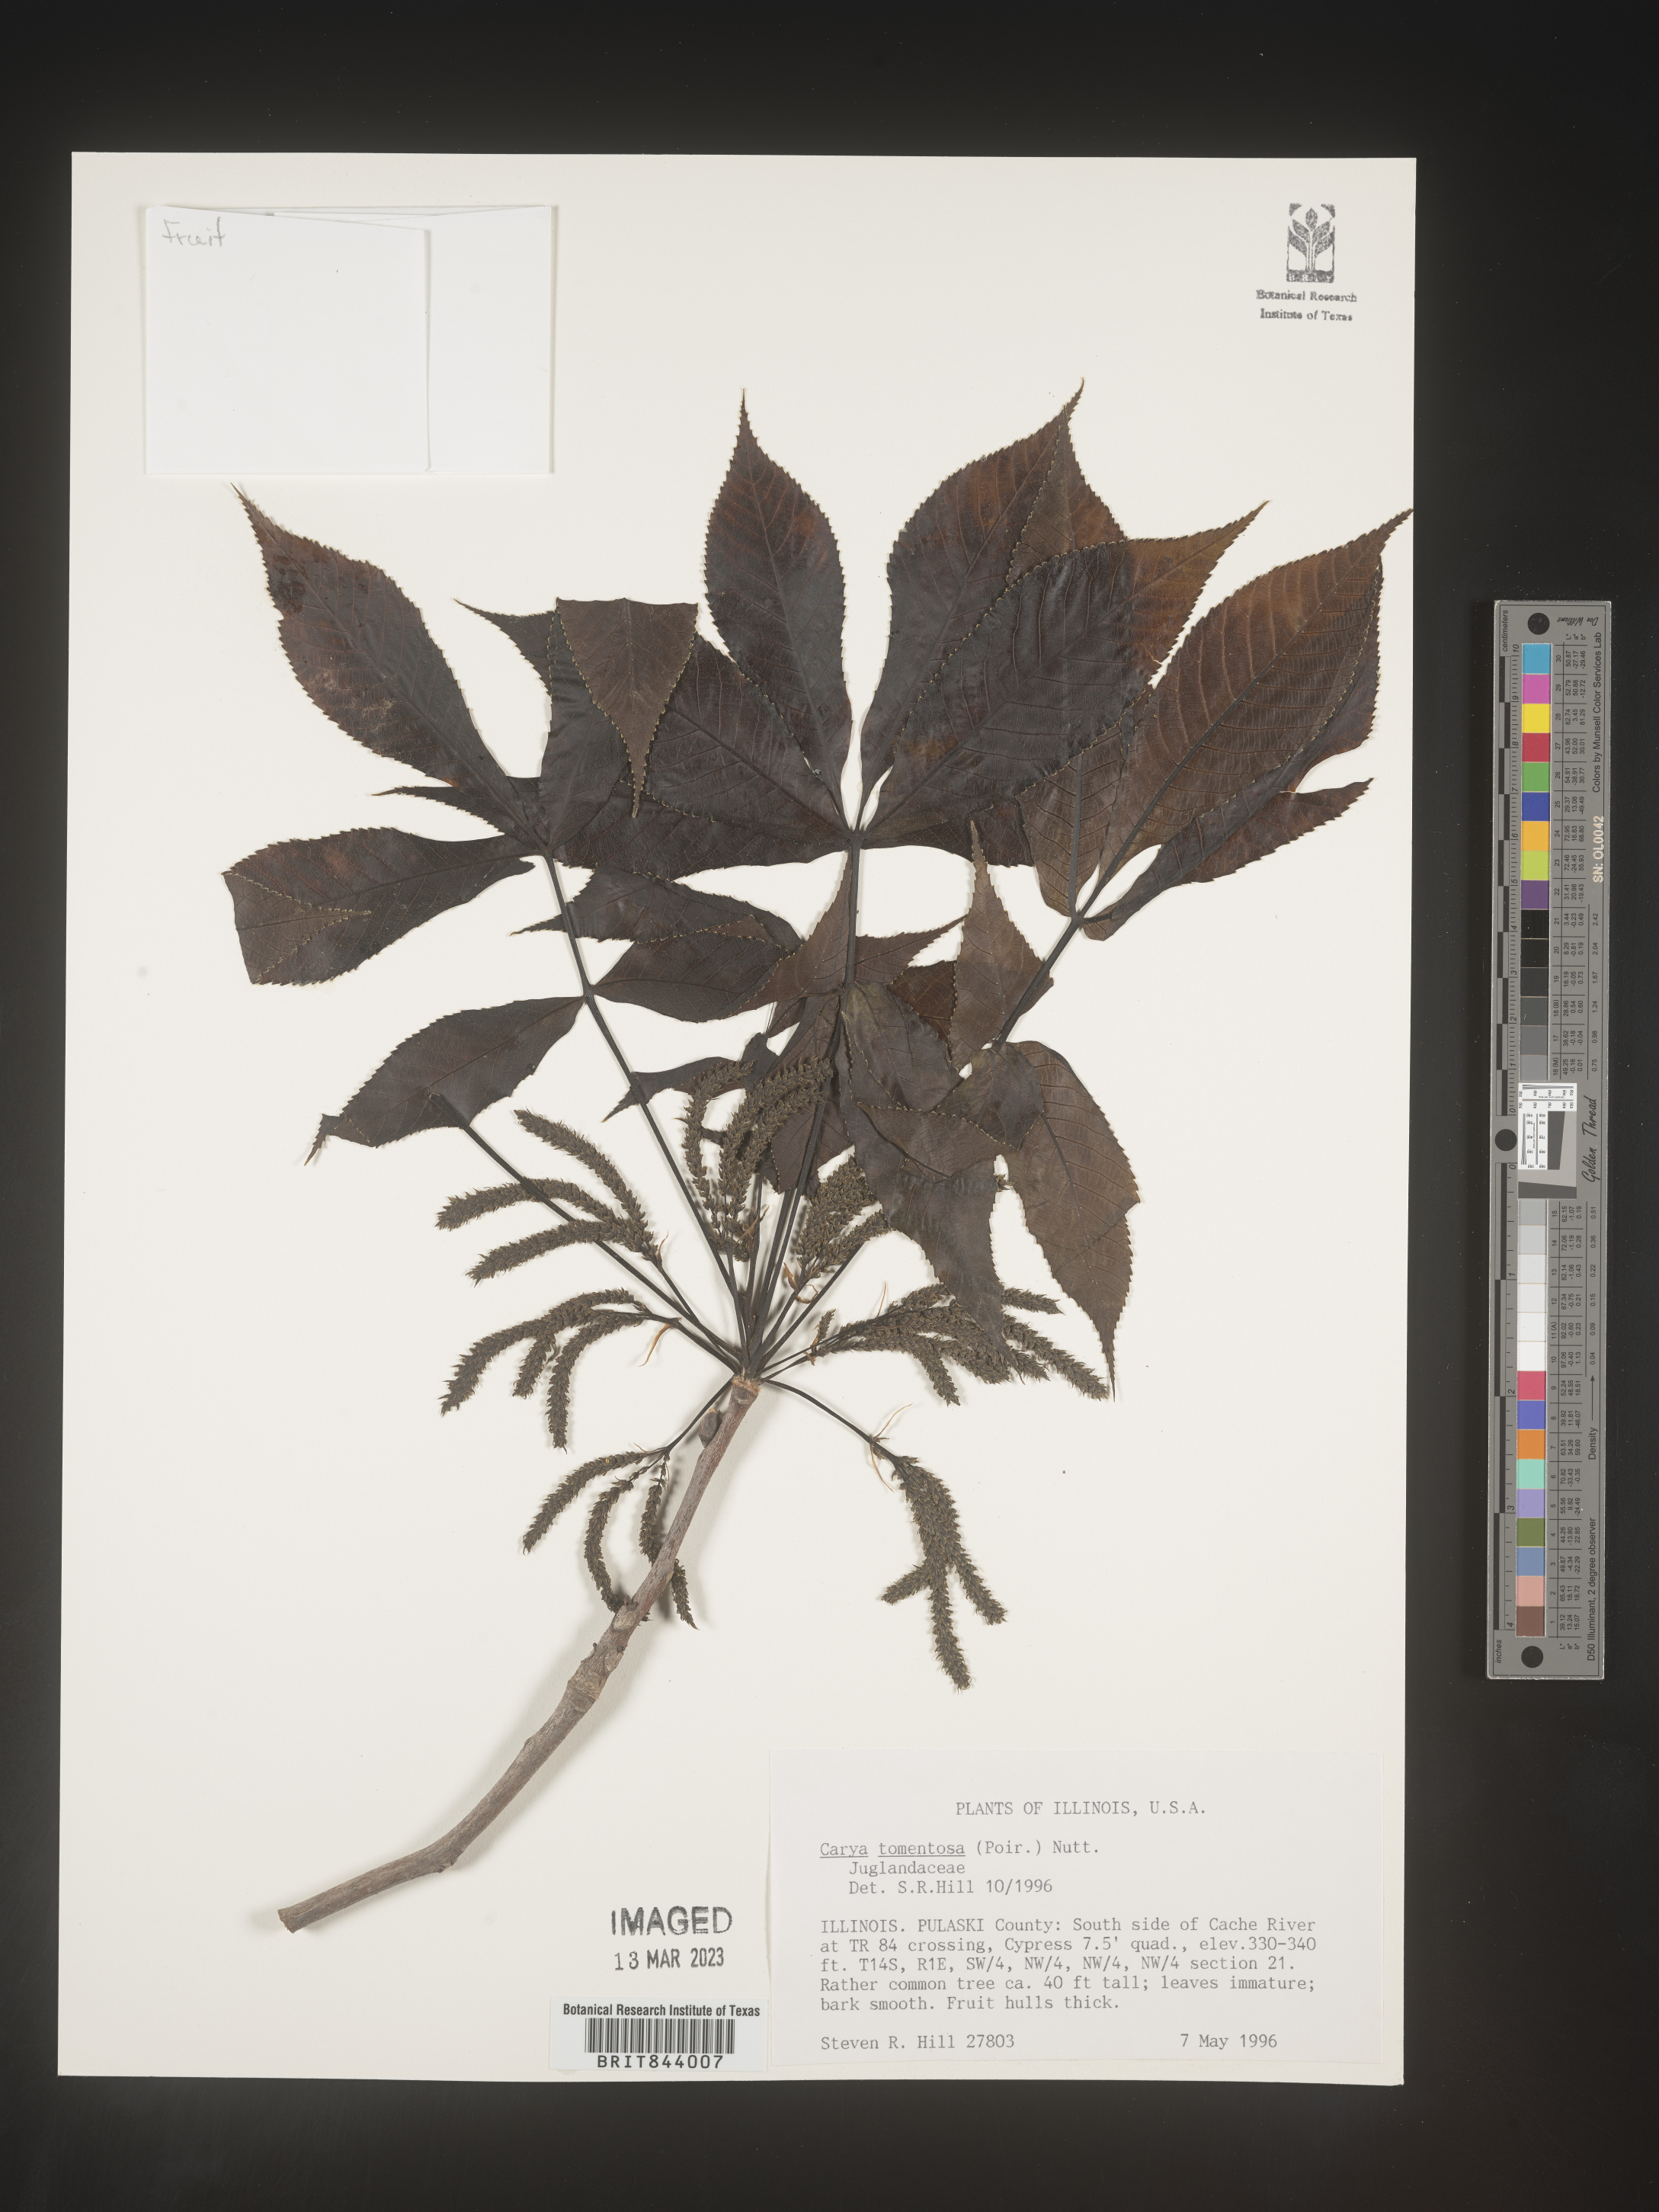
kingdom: Plantae
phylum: Tracheophyta
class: Magnoliopsida
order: Fagales
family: Juglandaceae
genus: Carya
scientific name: Carya alba
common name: Mockernut hickory
